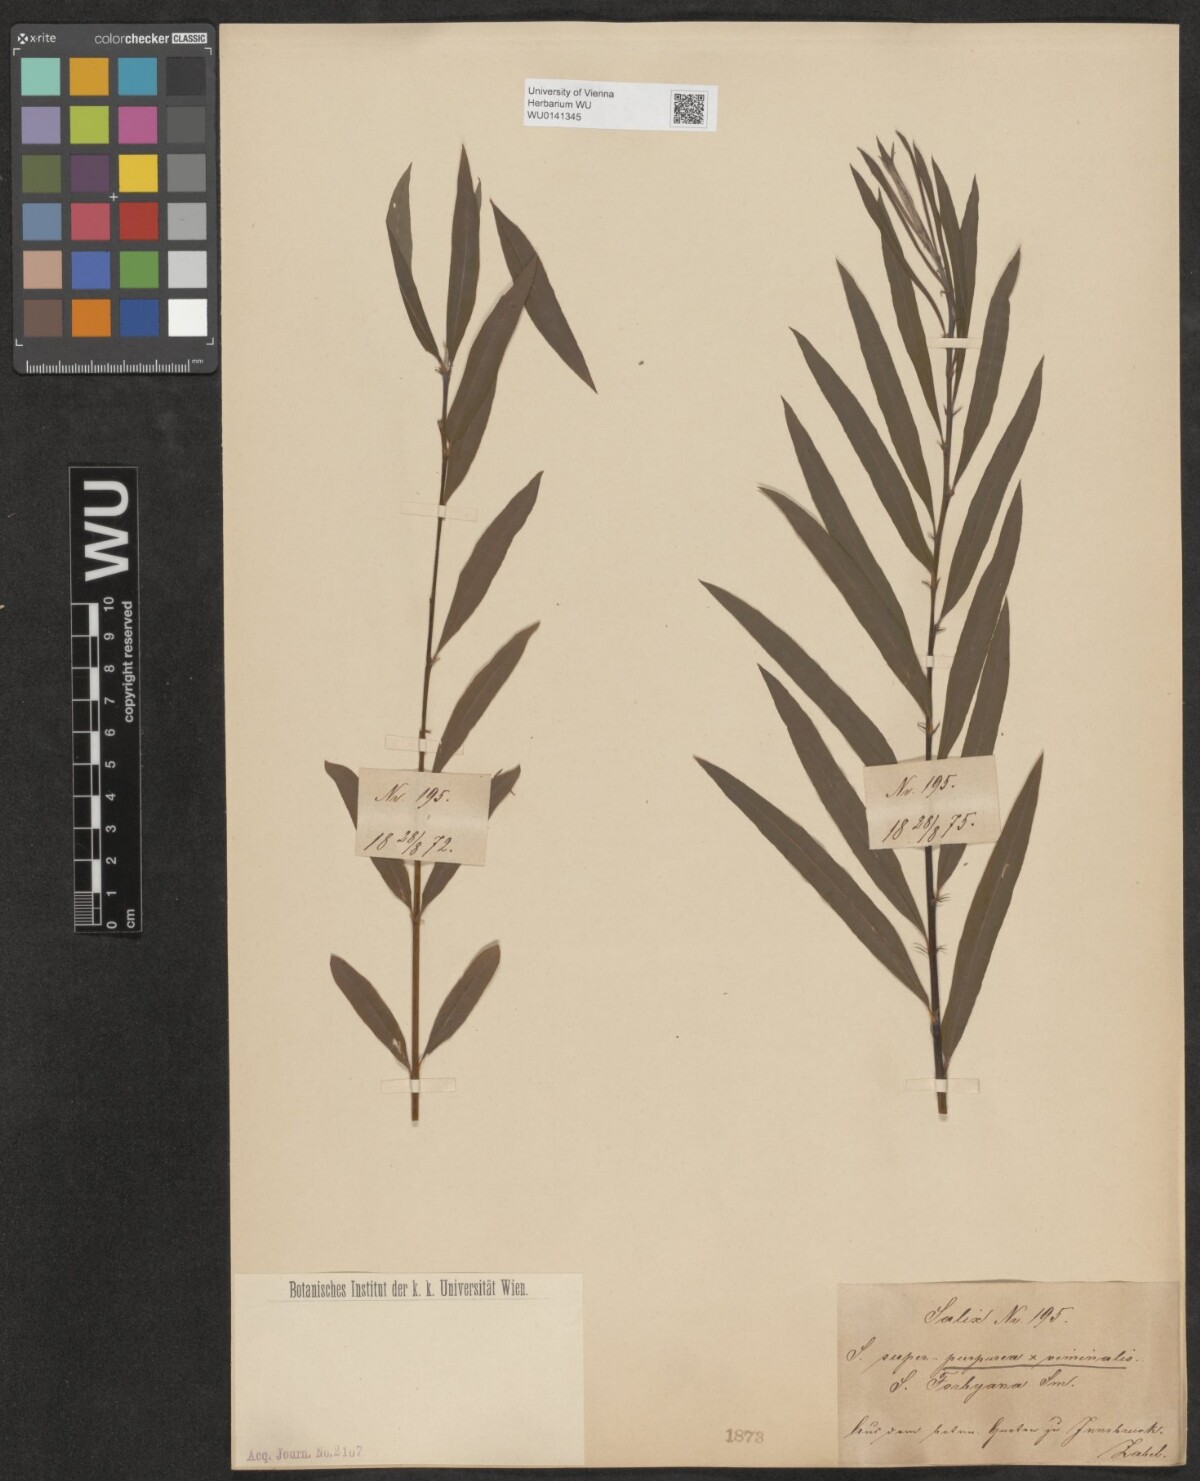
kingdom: Plantae
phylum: Tracheophyta
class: Magnoliopsida
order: Malpighiales
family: Salicaceae
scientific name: Salicaceae
